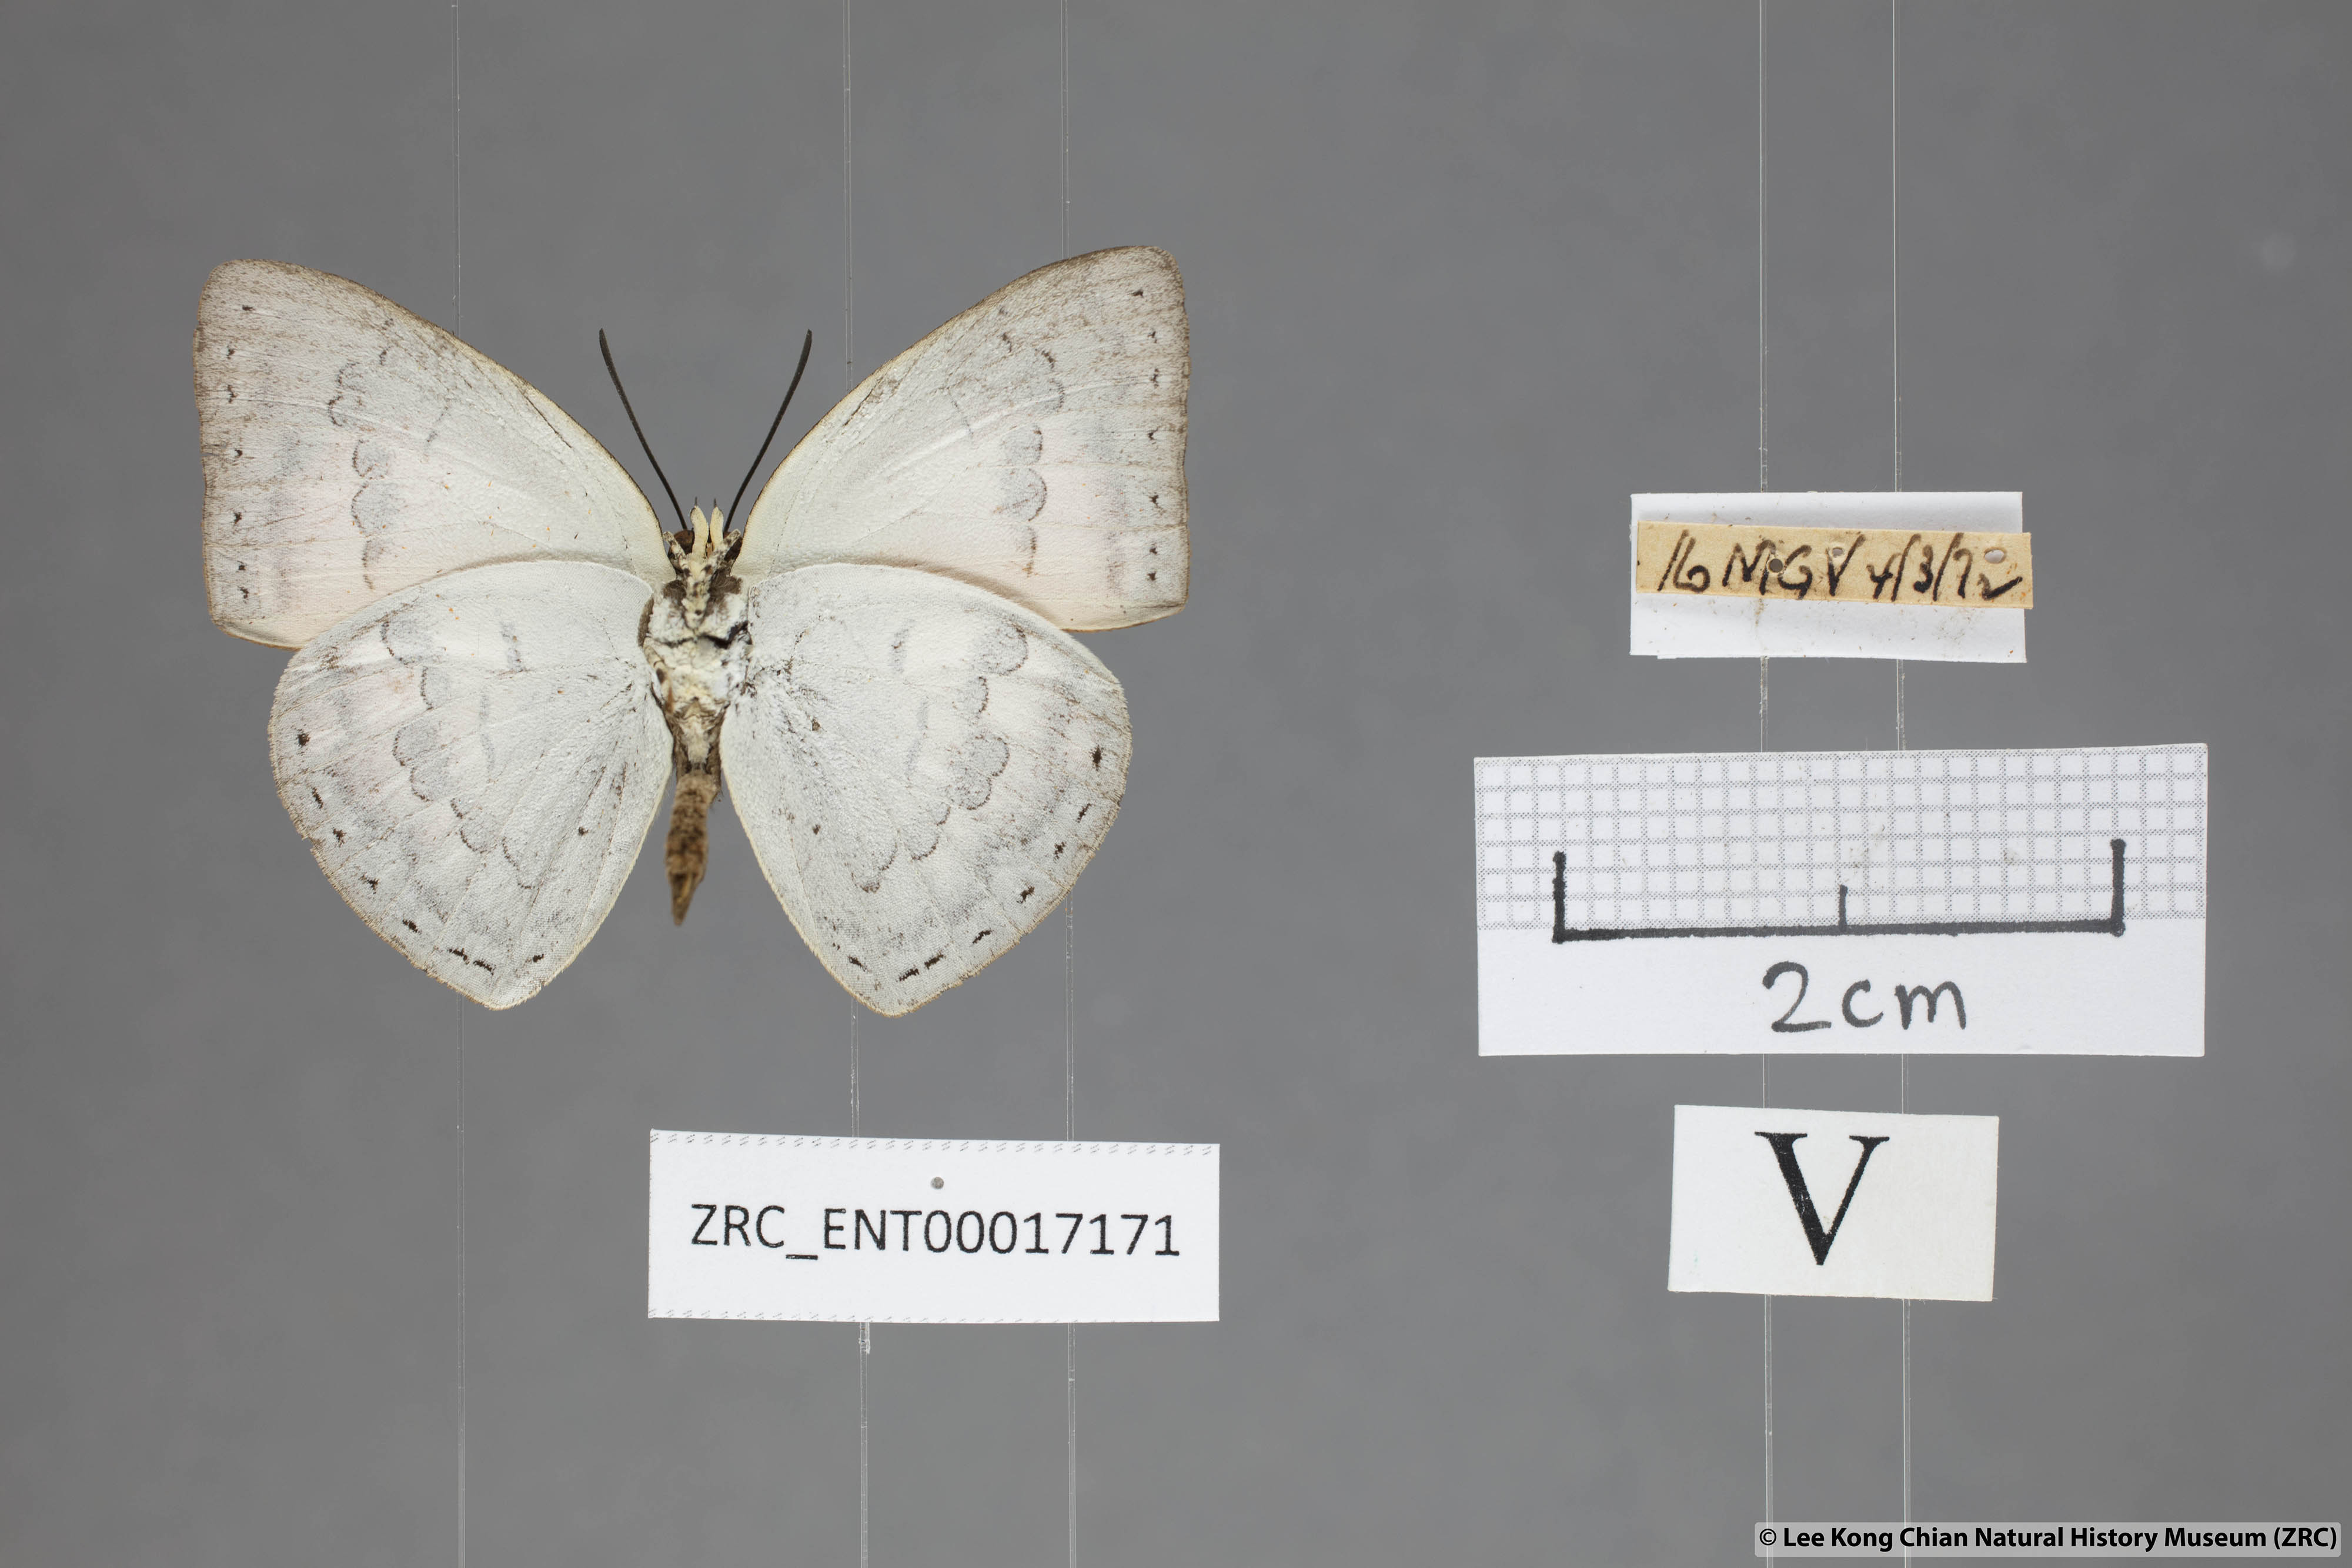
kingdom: Animalia
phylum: Arthropoda
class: Insecta
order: Lepidoptera
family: Lycaenidae
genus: Curetis
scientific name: Curetis tagalica
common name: Southern sunbeam
